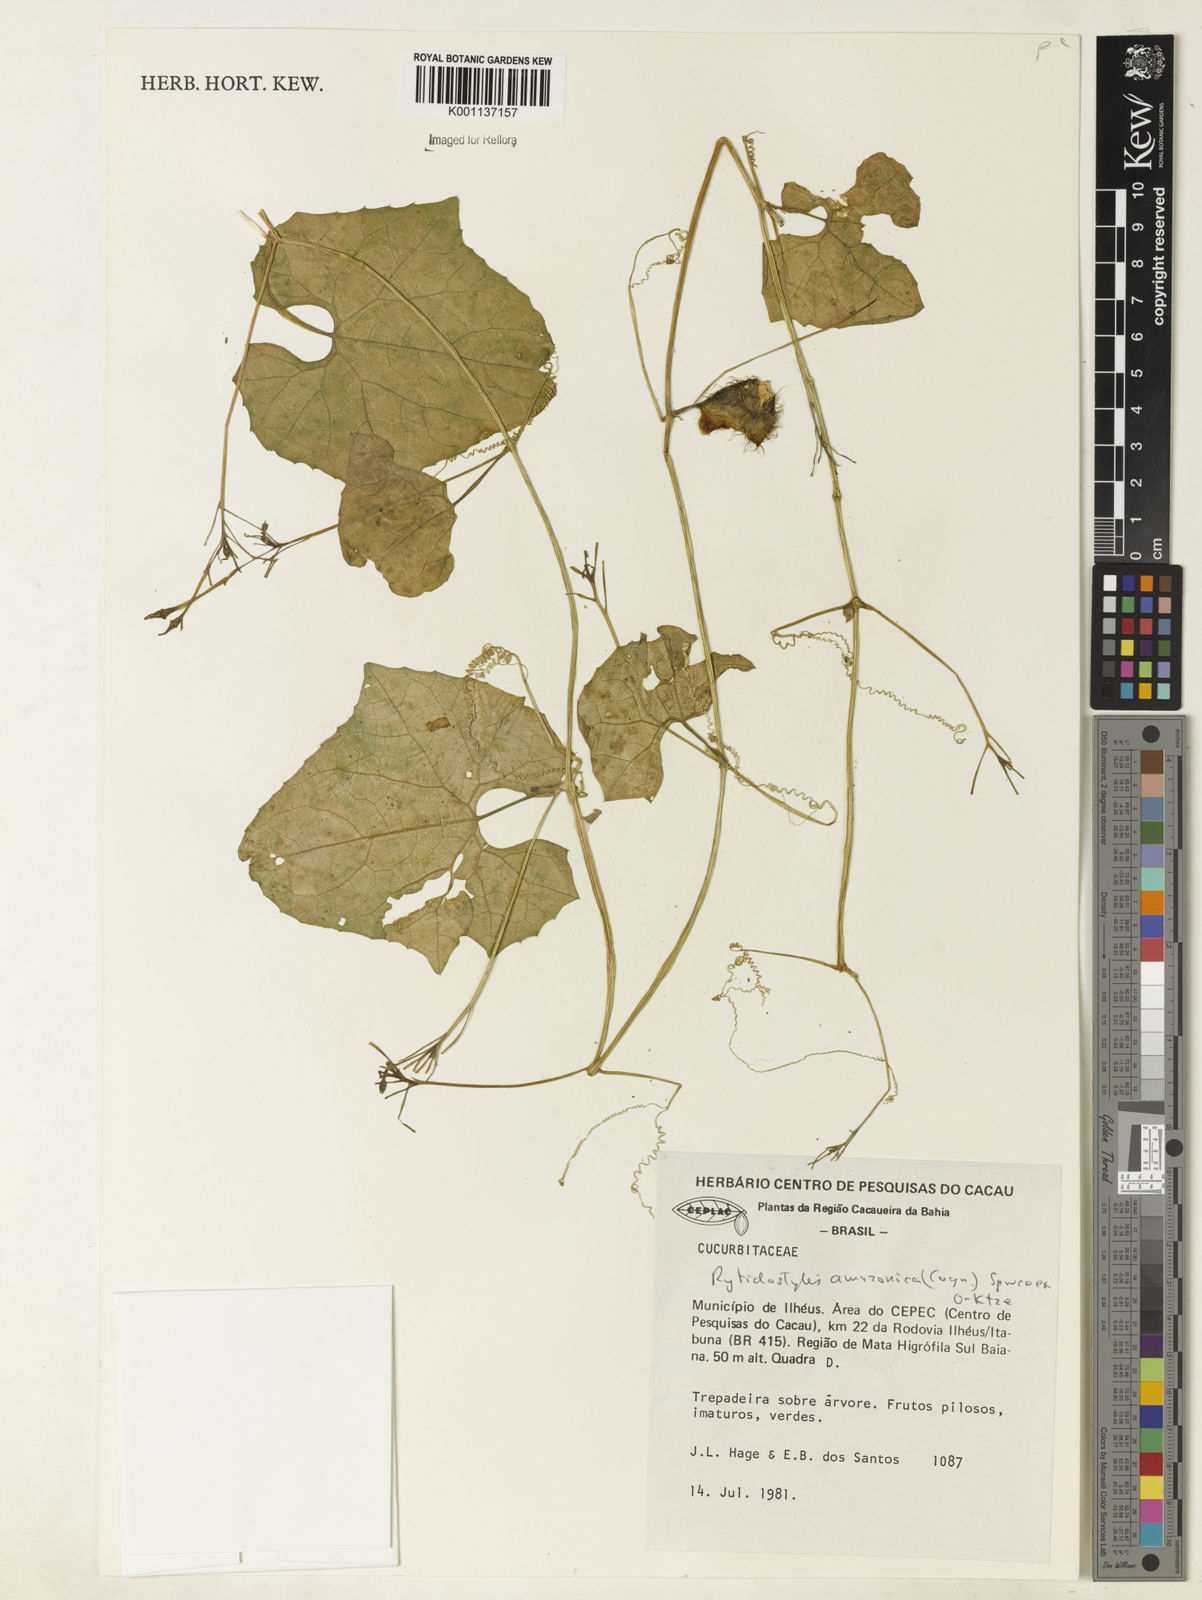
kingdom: Plantae
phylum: Tracheophyta
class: Magnoliopsida
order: Cucurbitales
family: Cucurbitaceae
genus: Cyclanthera
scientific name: Cyclanthera carthagenensis
